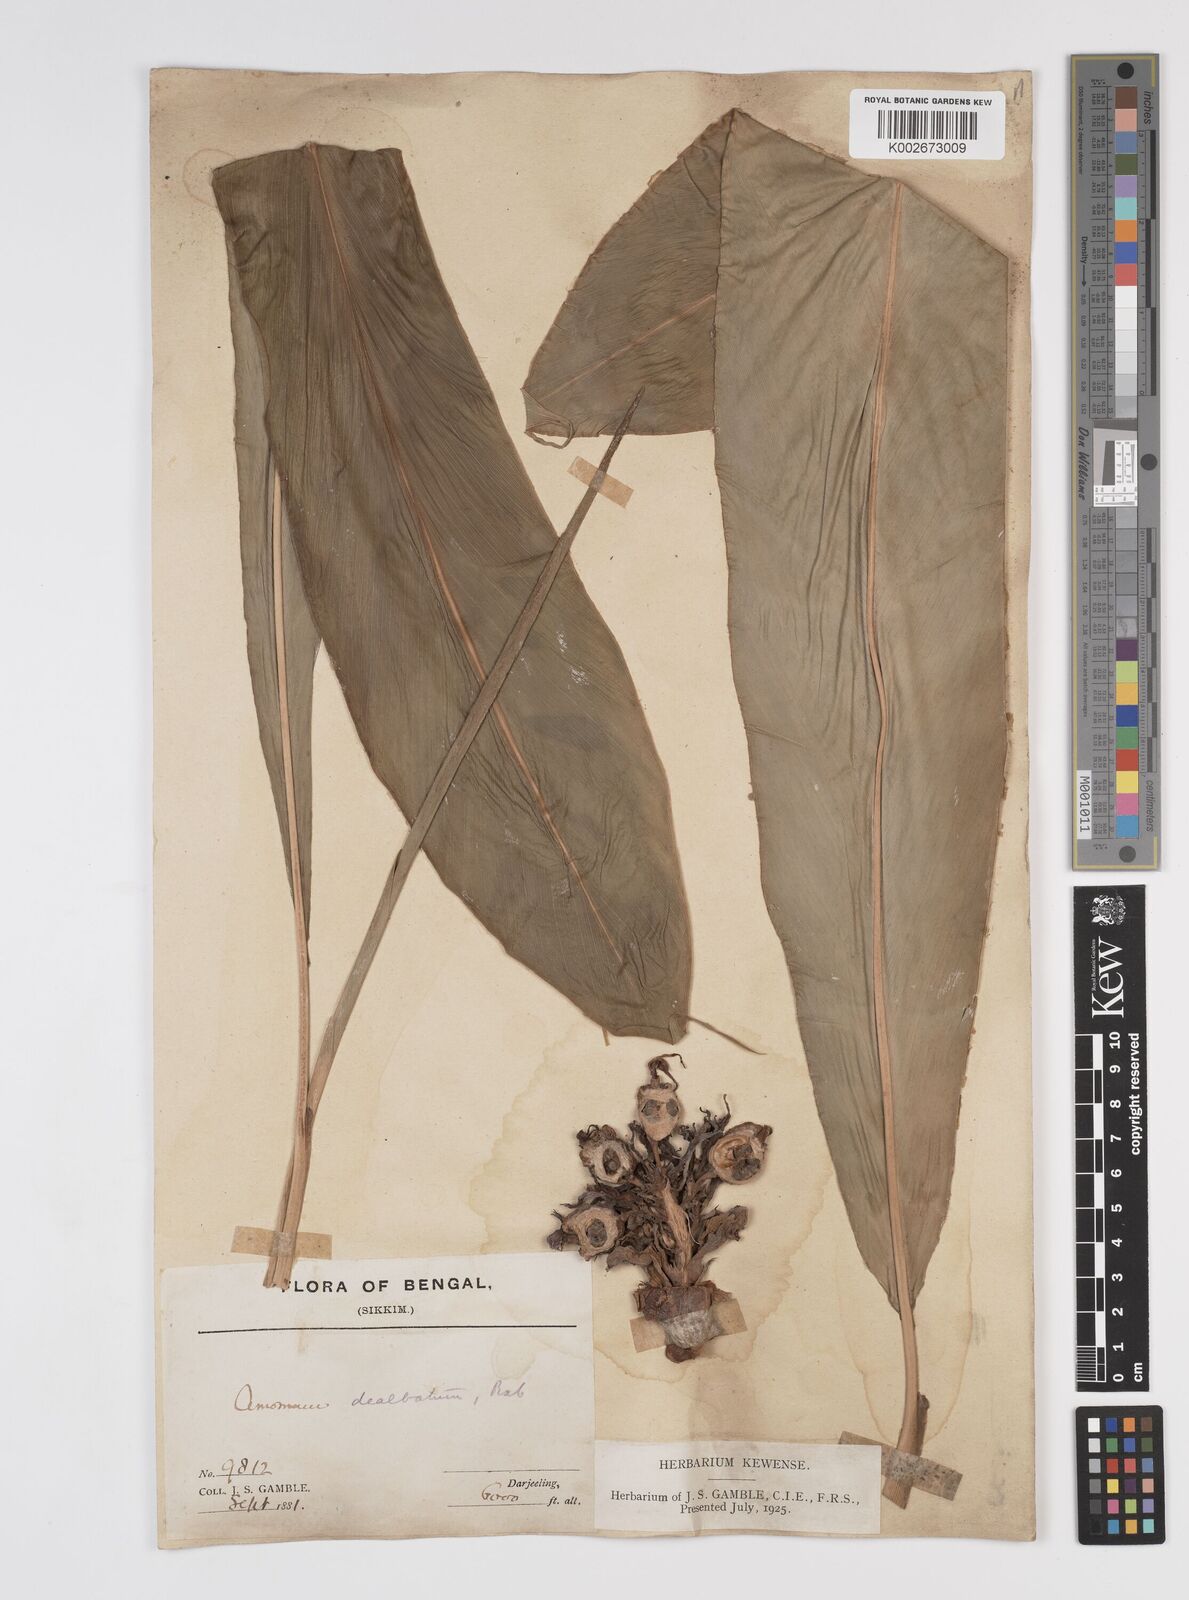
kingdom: Plantae
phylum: Tracheophyta
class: Liliopsida
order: Zingiberales
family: Zingiberaceae
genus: Amomum
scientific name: Amomum dealbatum
